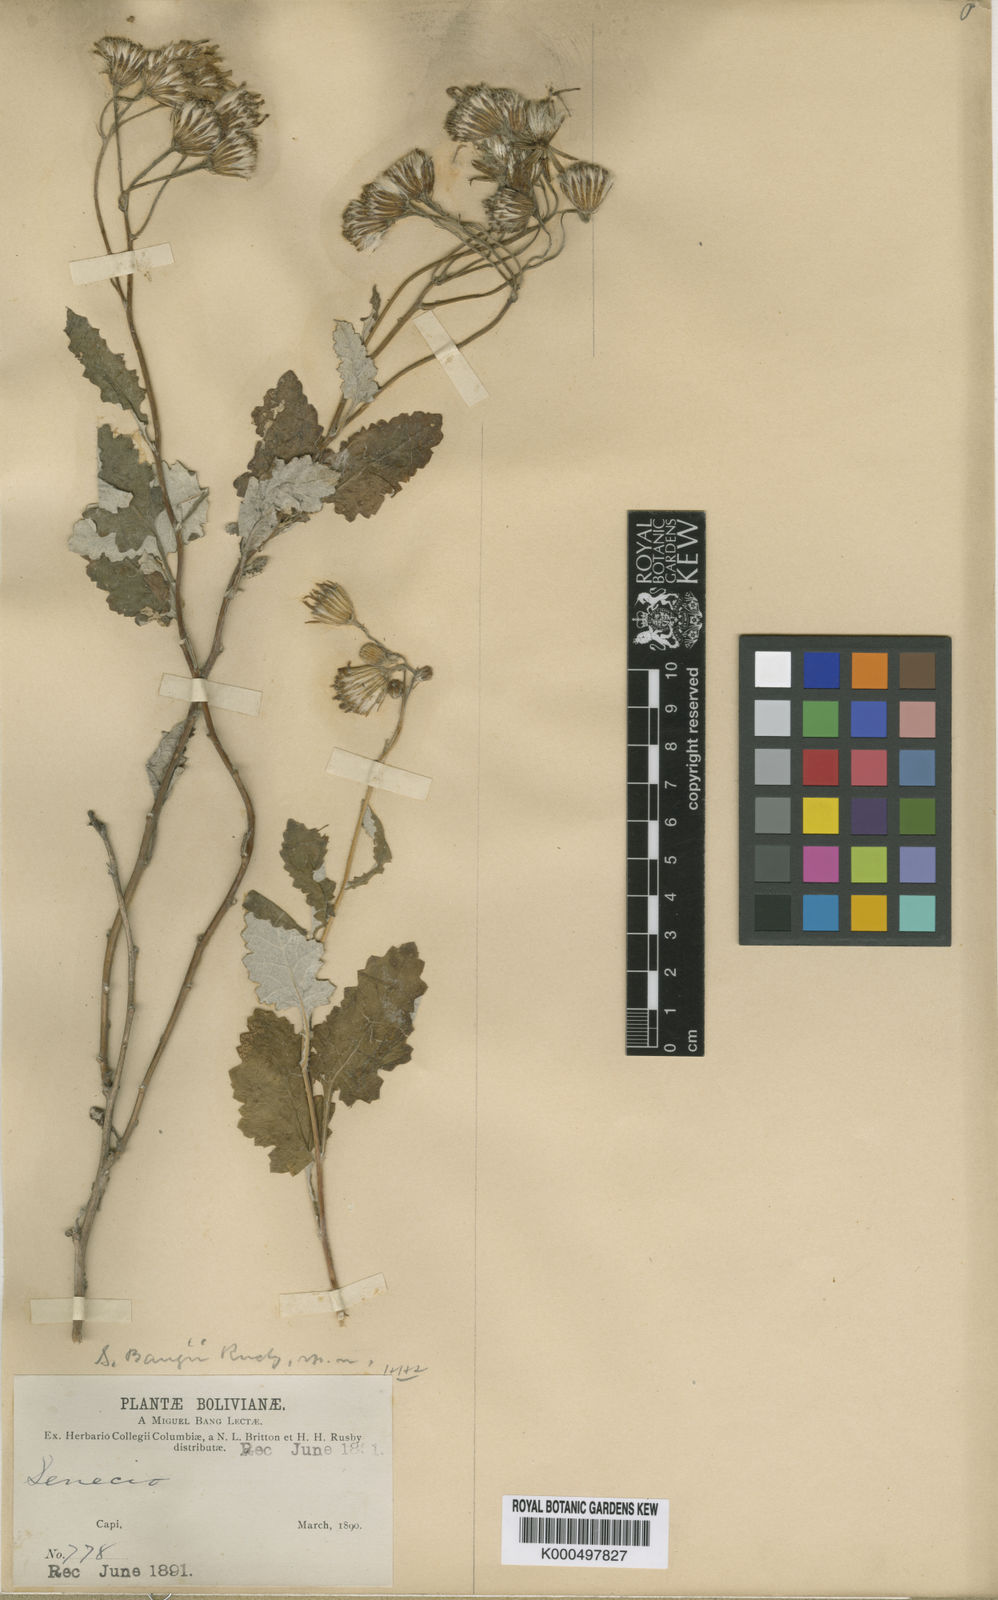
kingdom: Plantae
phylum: Tracheophyta
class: Magnoliopsida
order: Asterales
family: Asteraceae
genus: Lomanthus
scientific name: Lomanthus bangii
